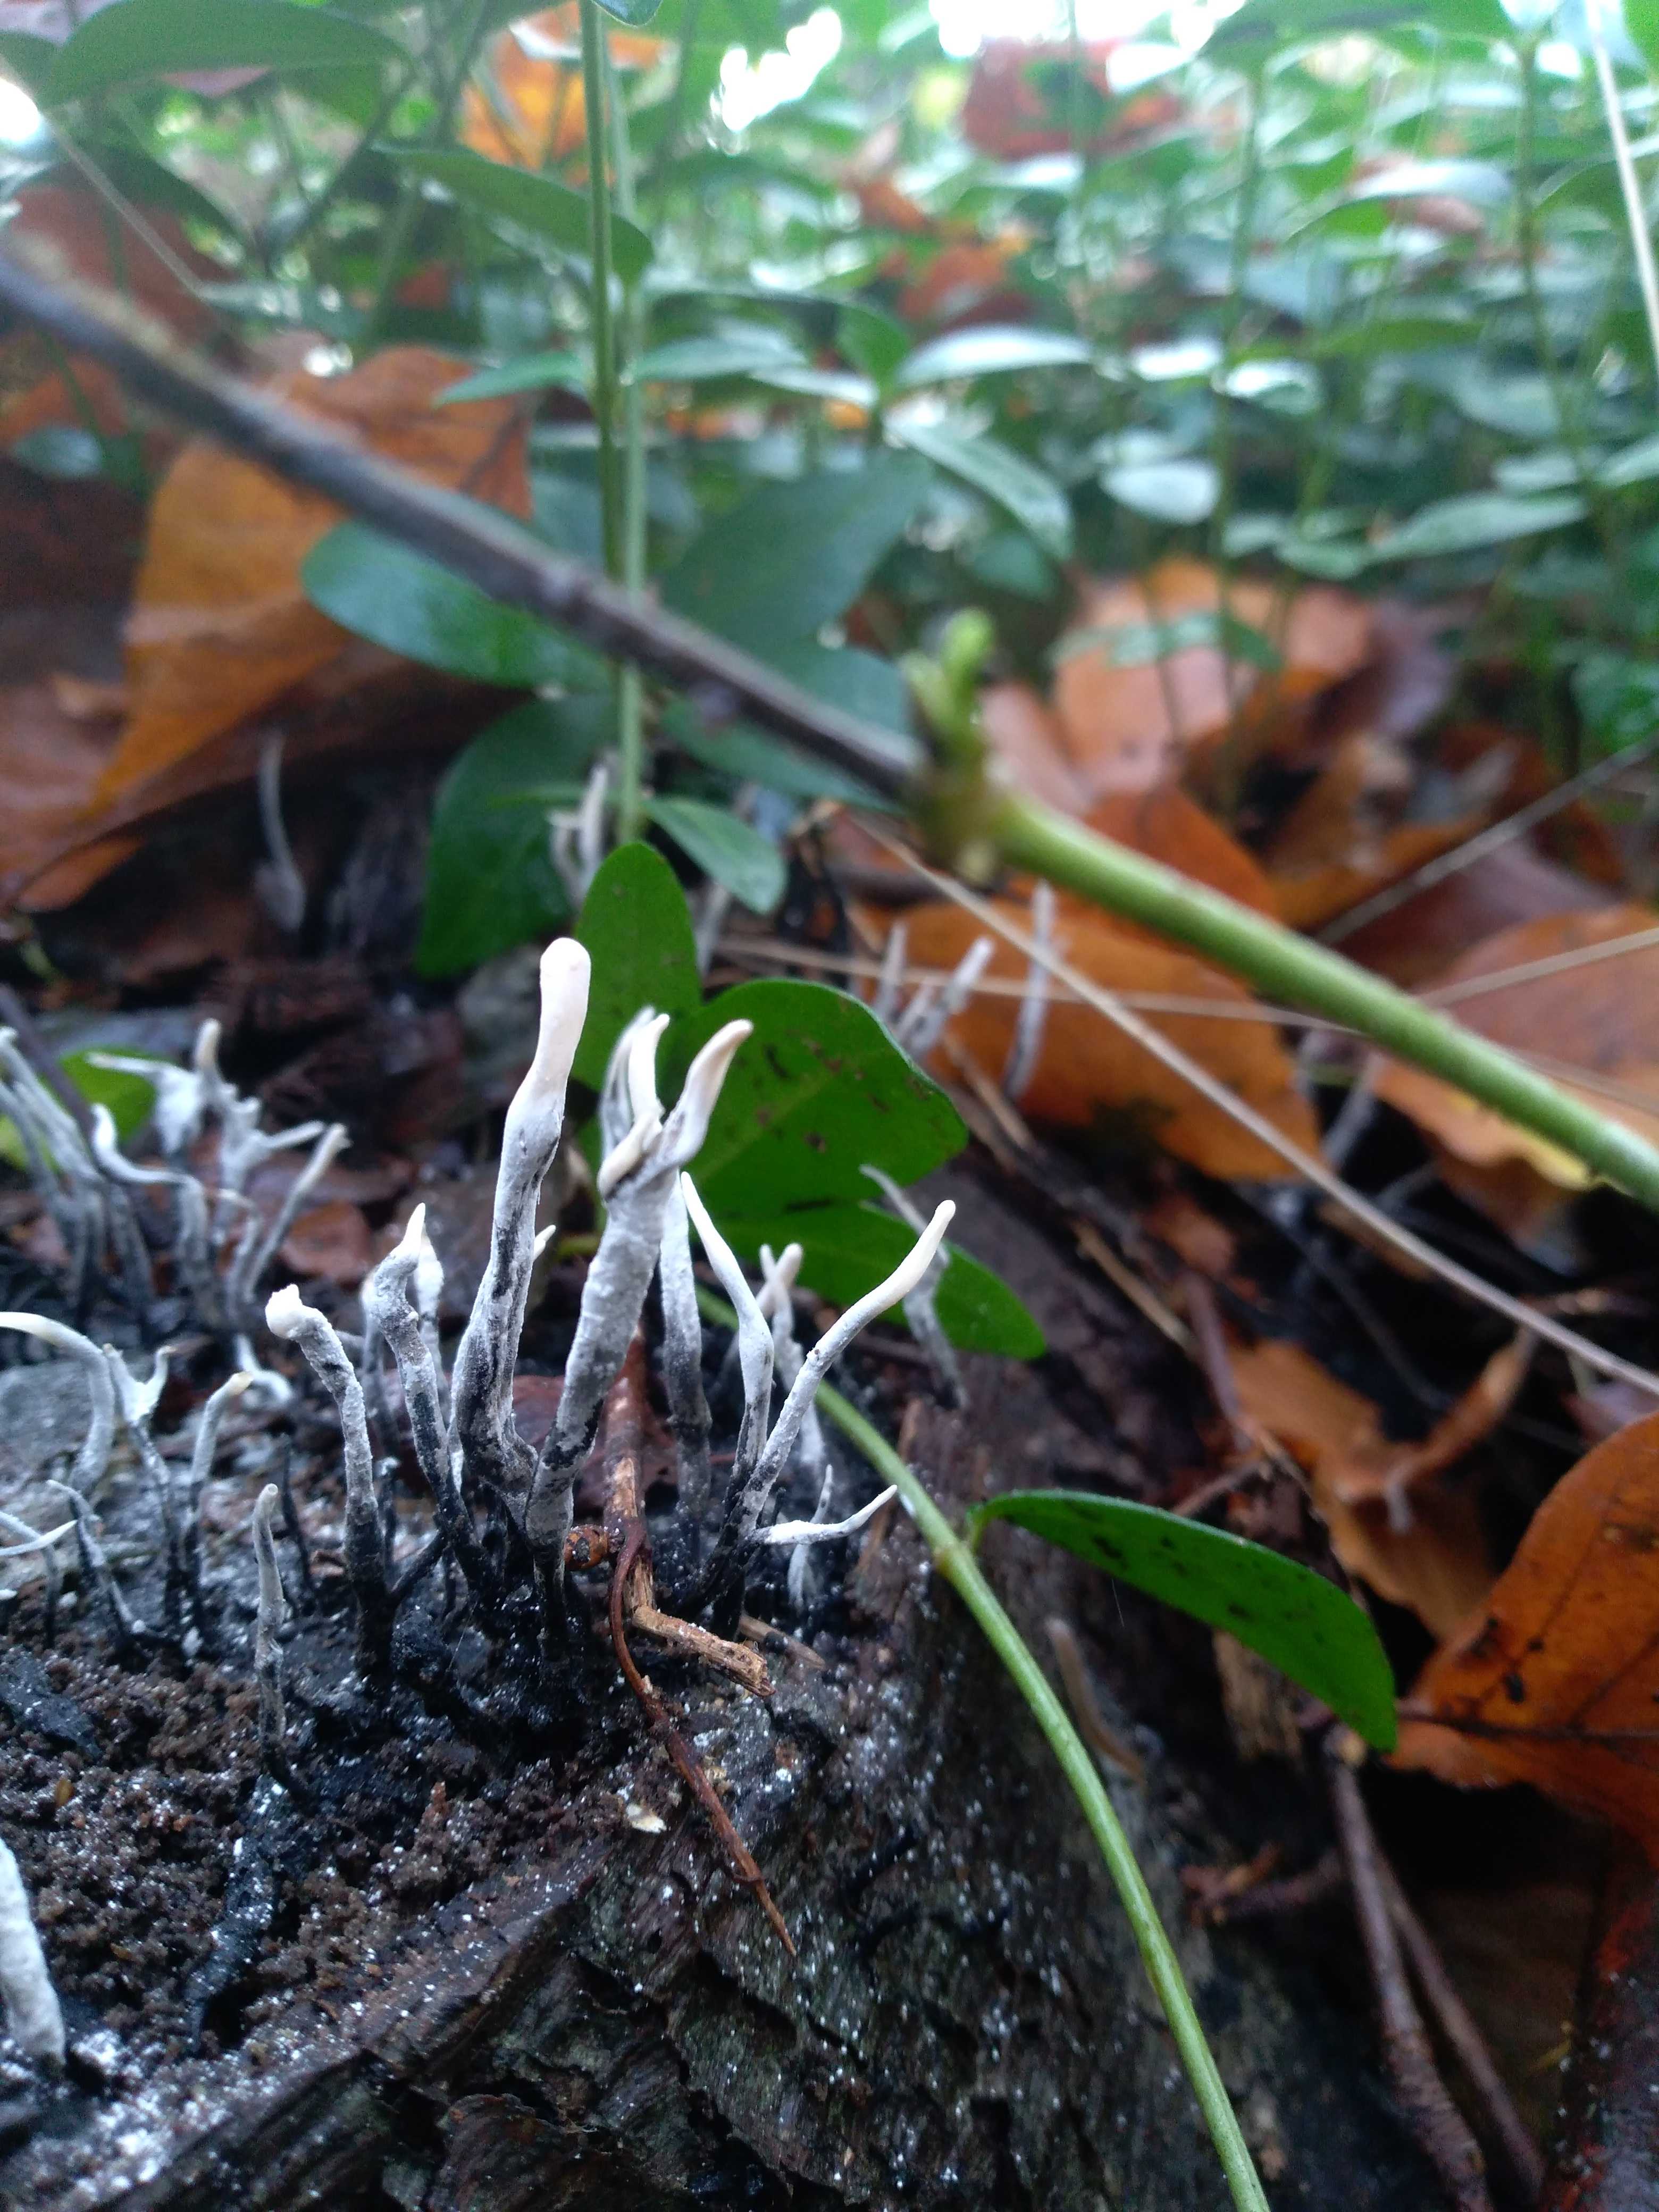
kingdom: Fungi
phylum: Ascomycota
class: Sordariomycetes
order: Xylariales
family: Xylariaceae
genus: Xylaria
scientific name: Xylaria hypoxylon
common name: grenet stødsvamp
